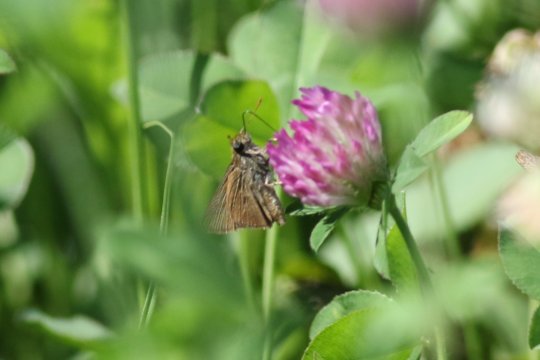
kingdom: Animalia
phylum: Arthropoda
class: Insecta
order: Lepidoptera
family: Hesperiidae
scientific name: Hesperiidae
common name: Skippers
